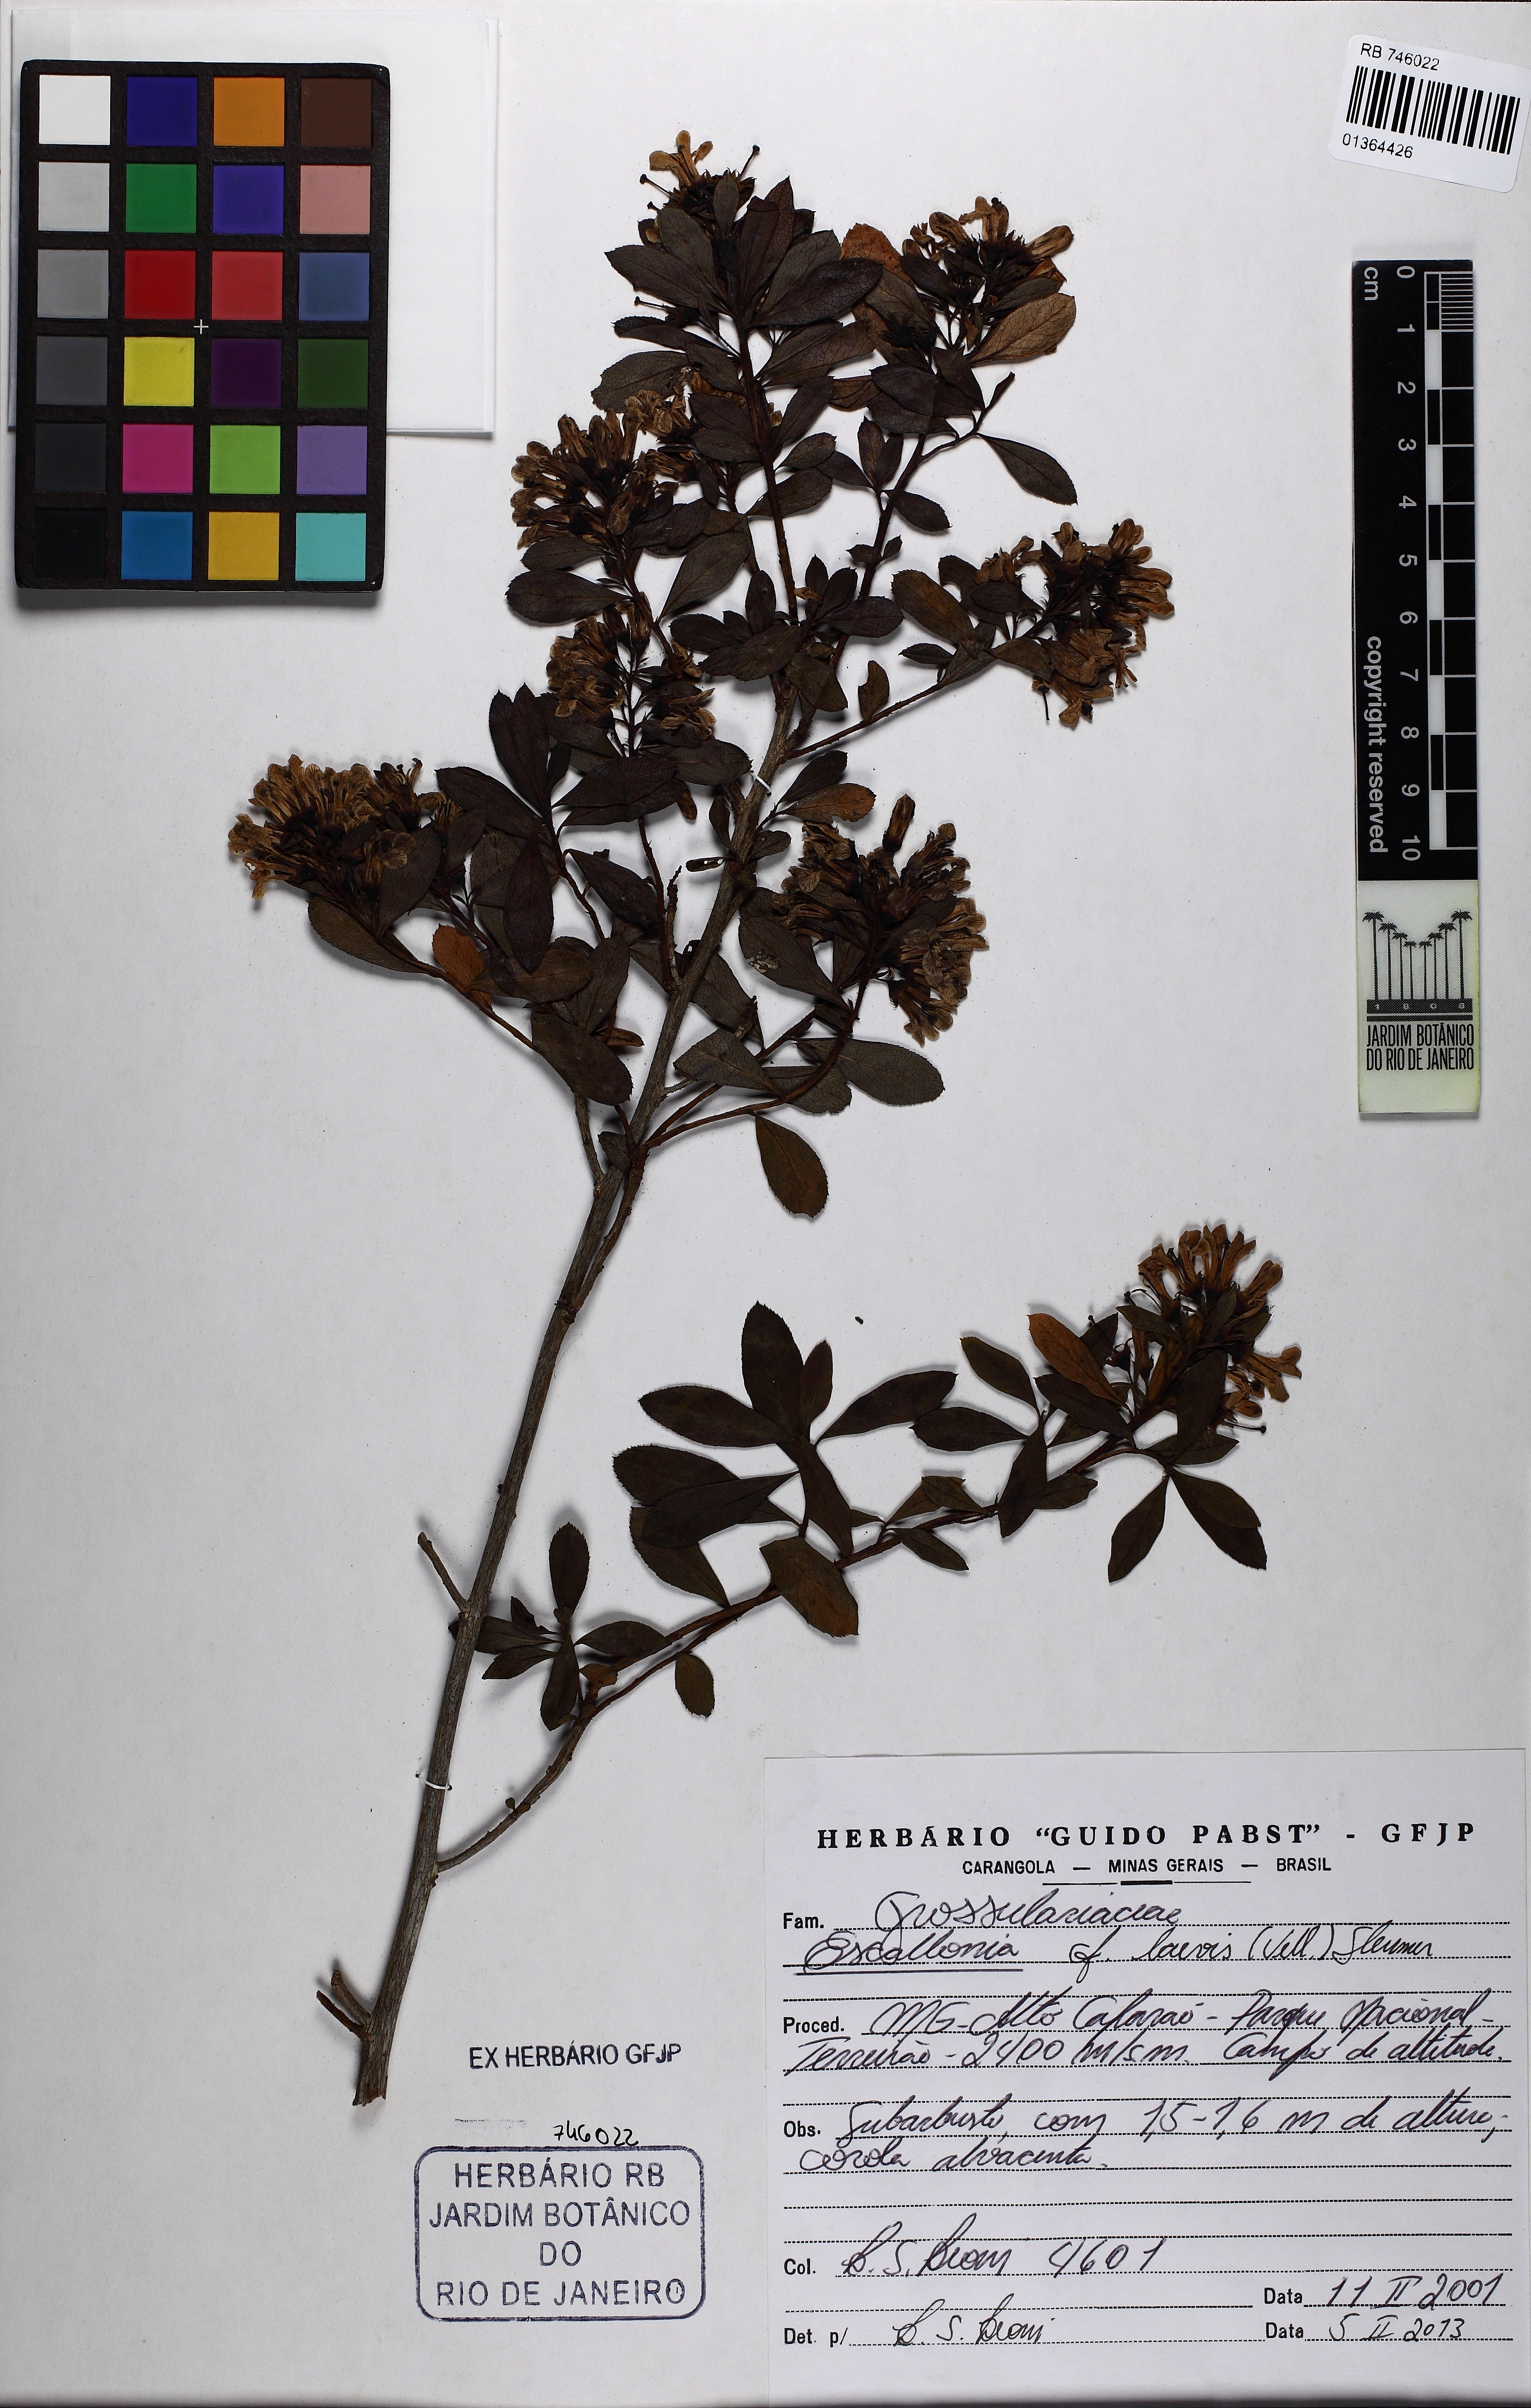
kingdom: Plantae
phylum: Tracheophyta
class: Magnoliopsida
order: Escalloniales
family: Escalloniaceae
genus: Escallonia
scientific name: Escallonia laevis
